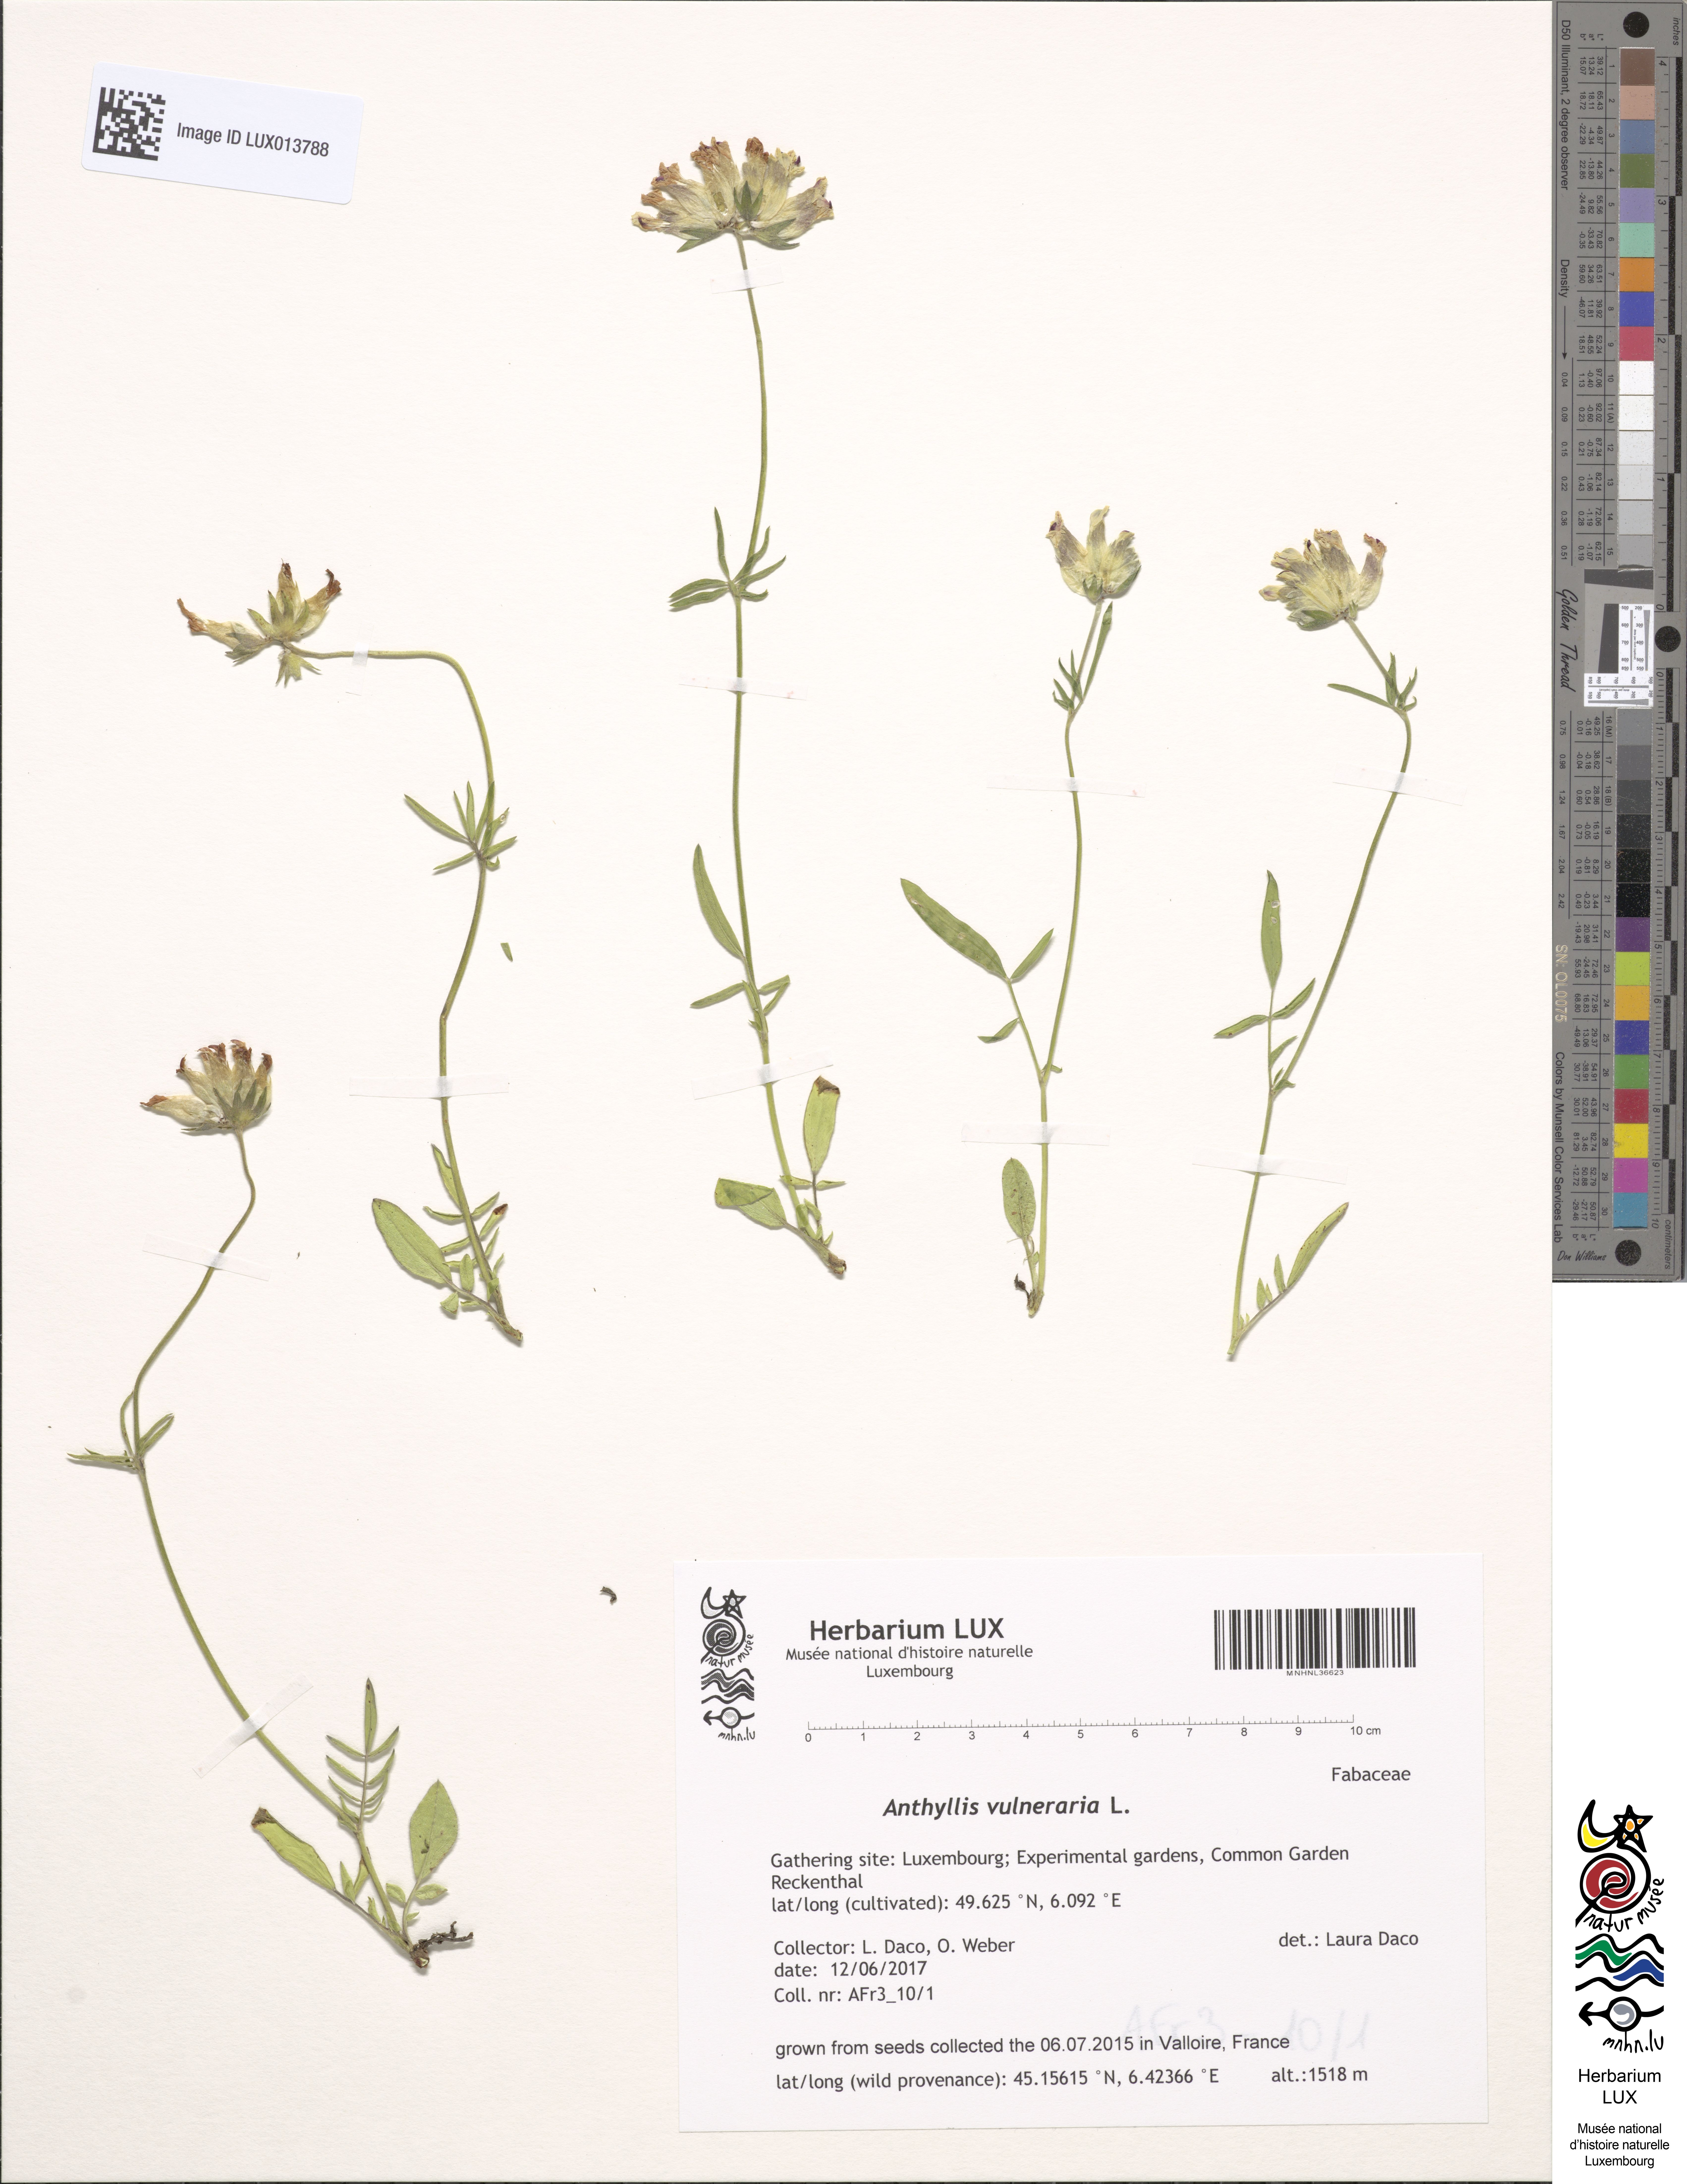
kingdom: Plantae
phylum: Tracheophyta
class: Magnoliopsida
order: Fabales
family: Fabaceae
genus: Anthyllis
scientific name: Anthyllis vulneraria
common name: Kidney vetch
